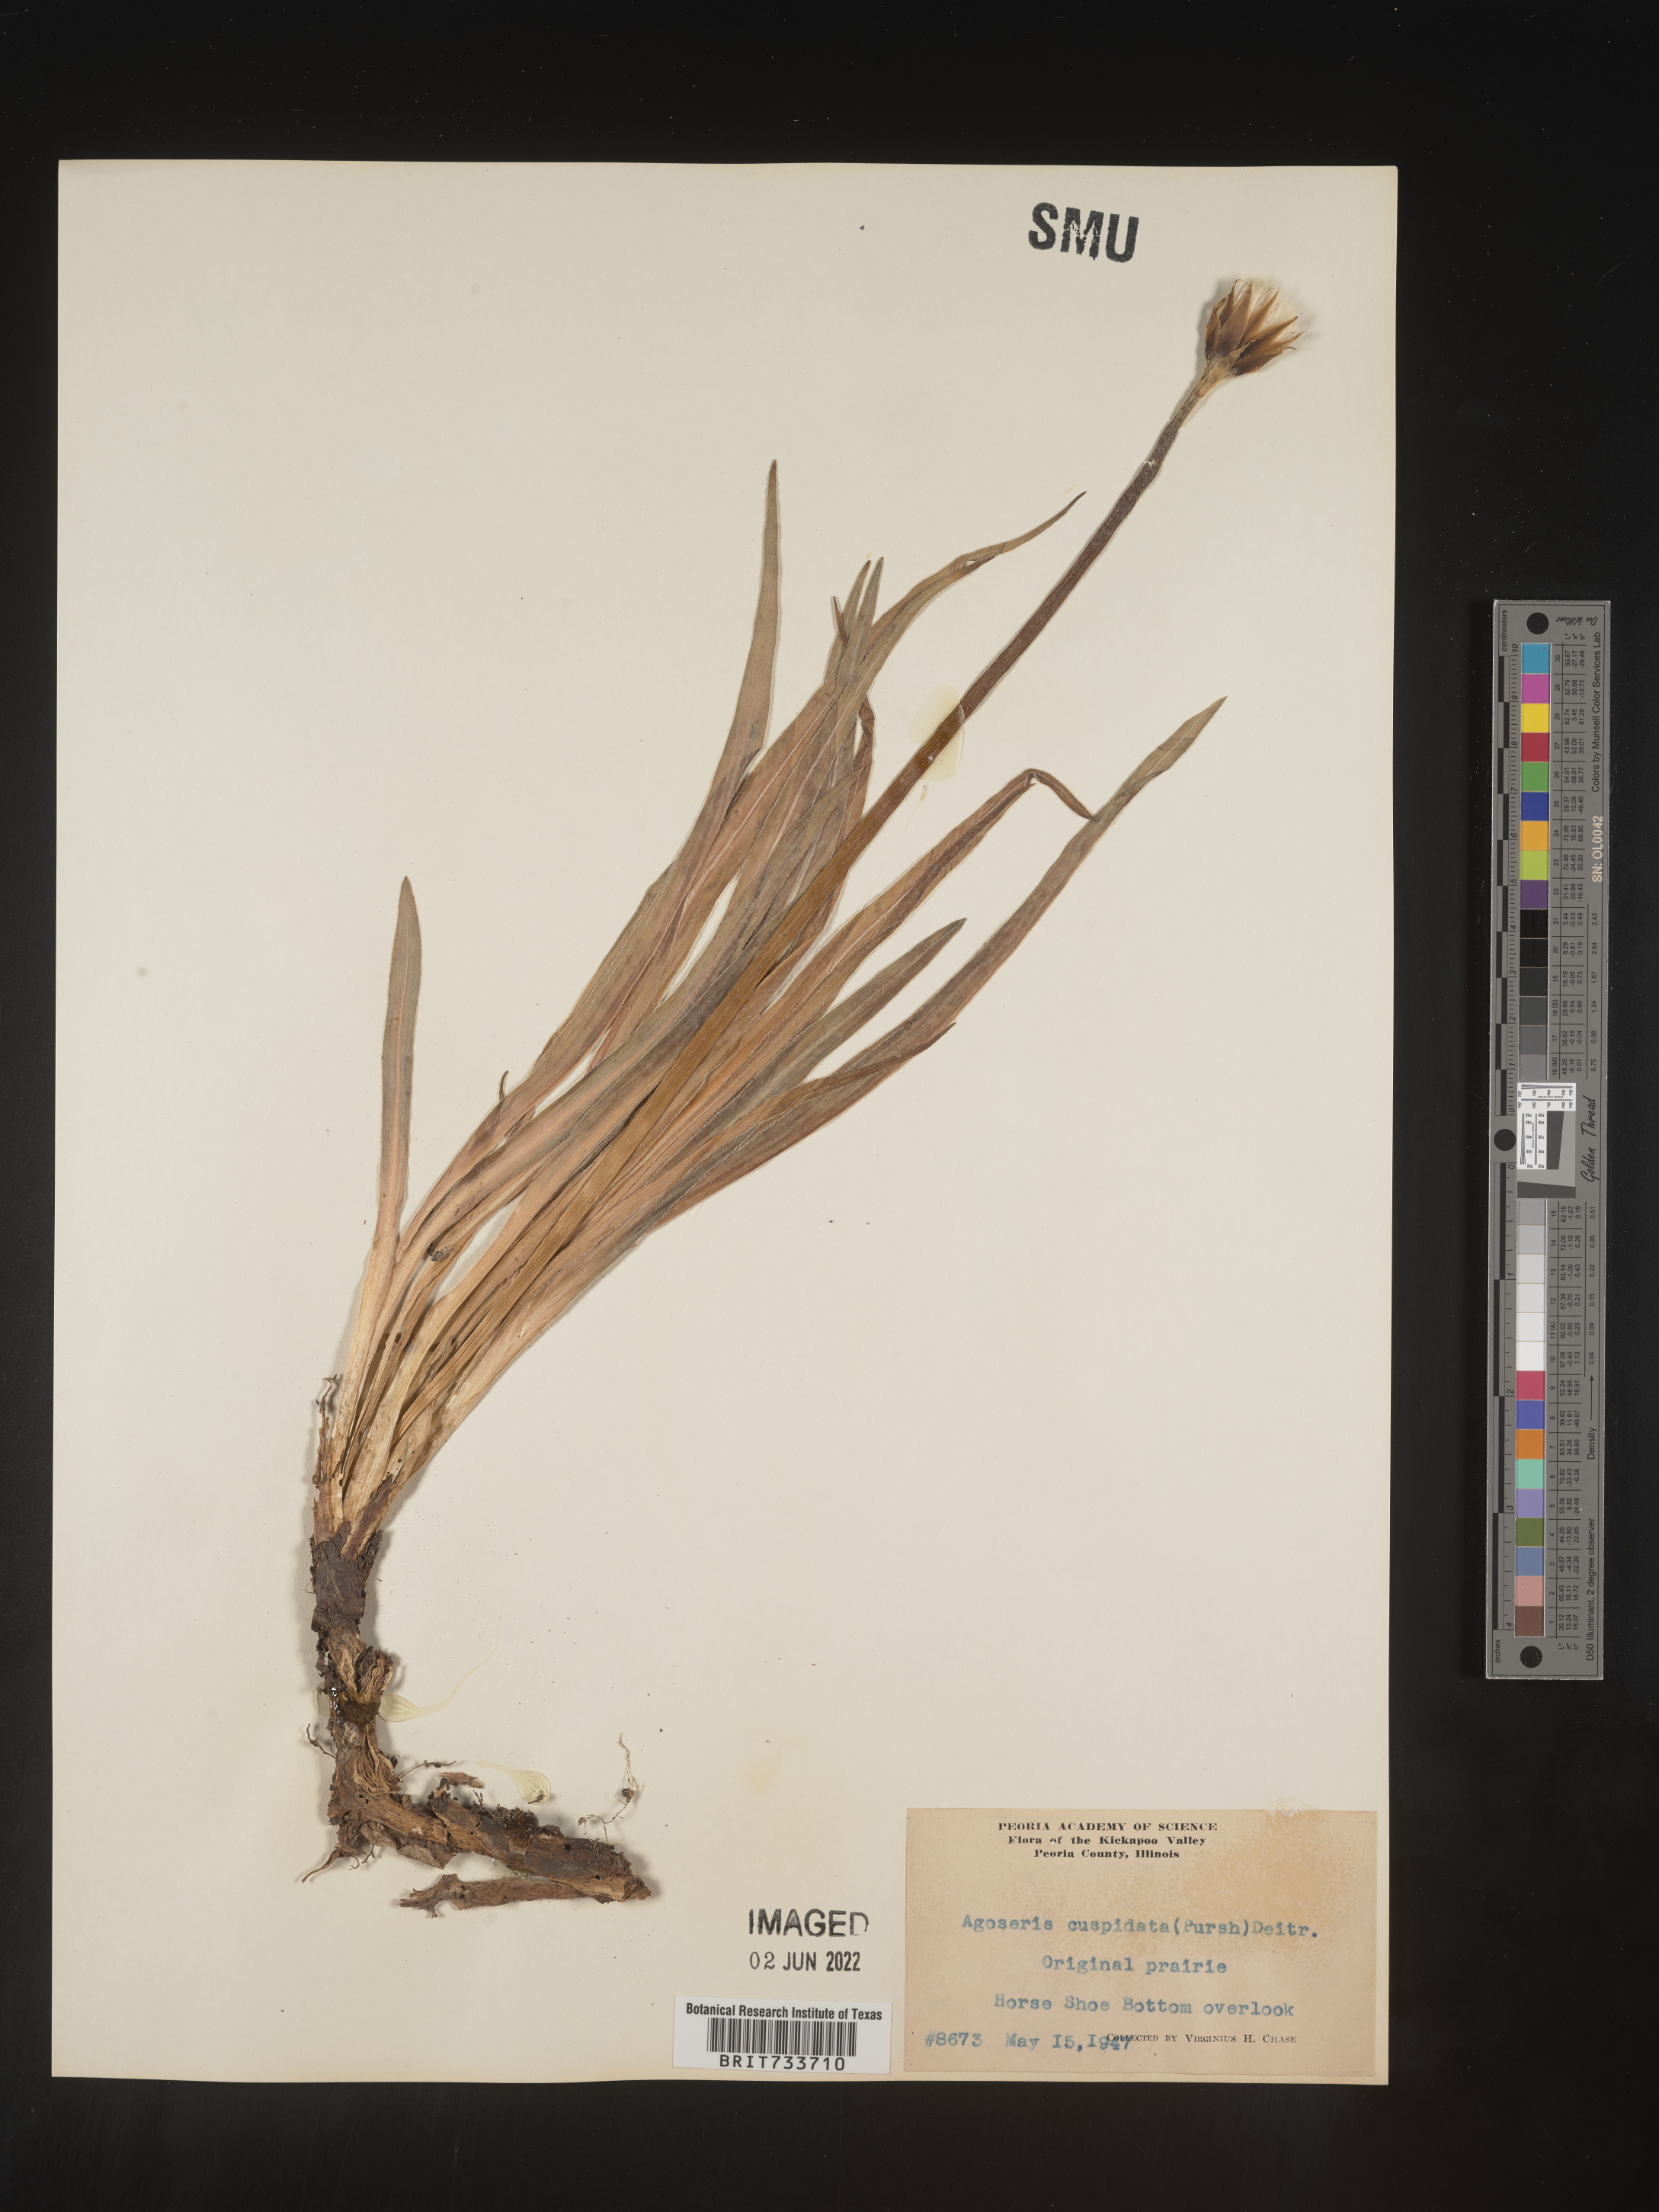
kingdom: Plantae
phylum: Tracheophyta
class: Magnoliopsida
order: Asterales
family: Asteraceae
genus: Microseris
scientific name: Microseris
